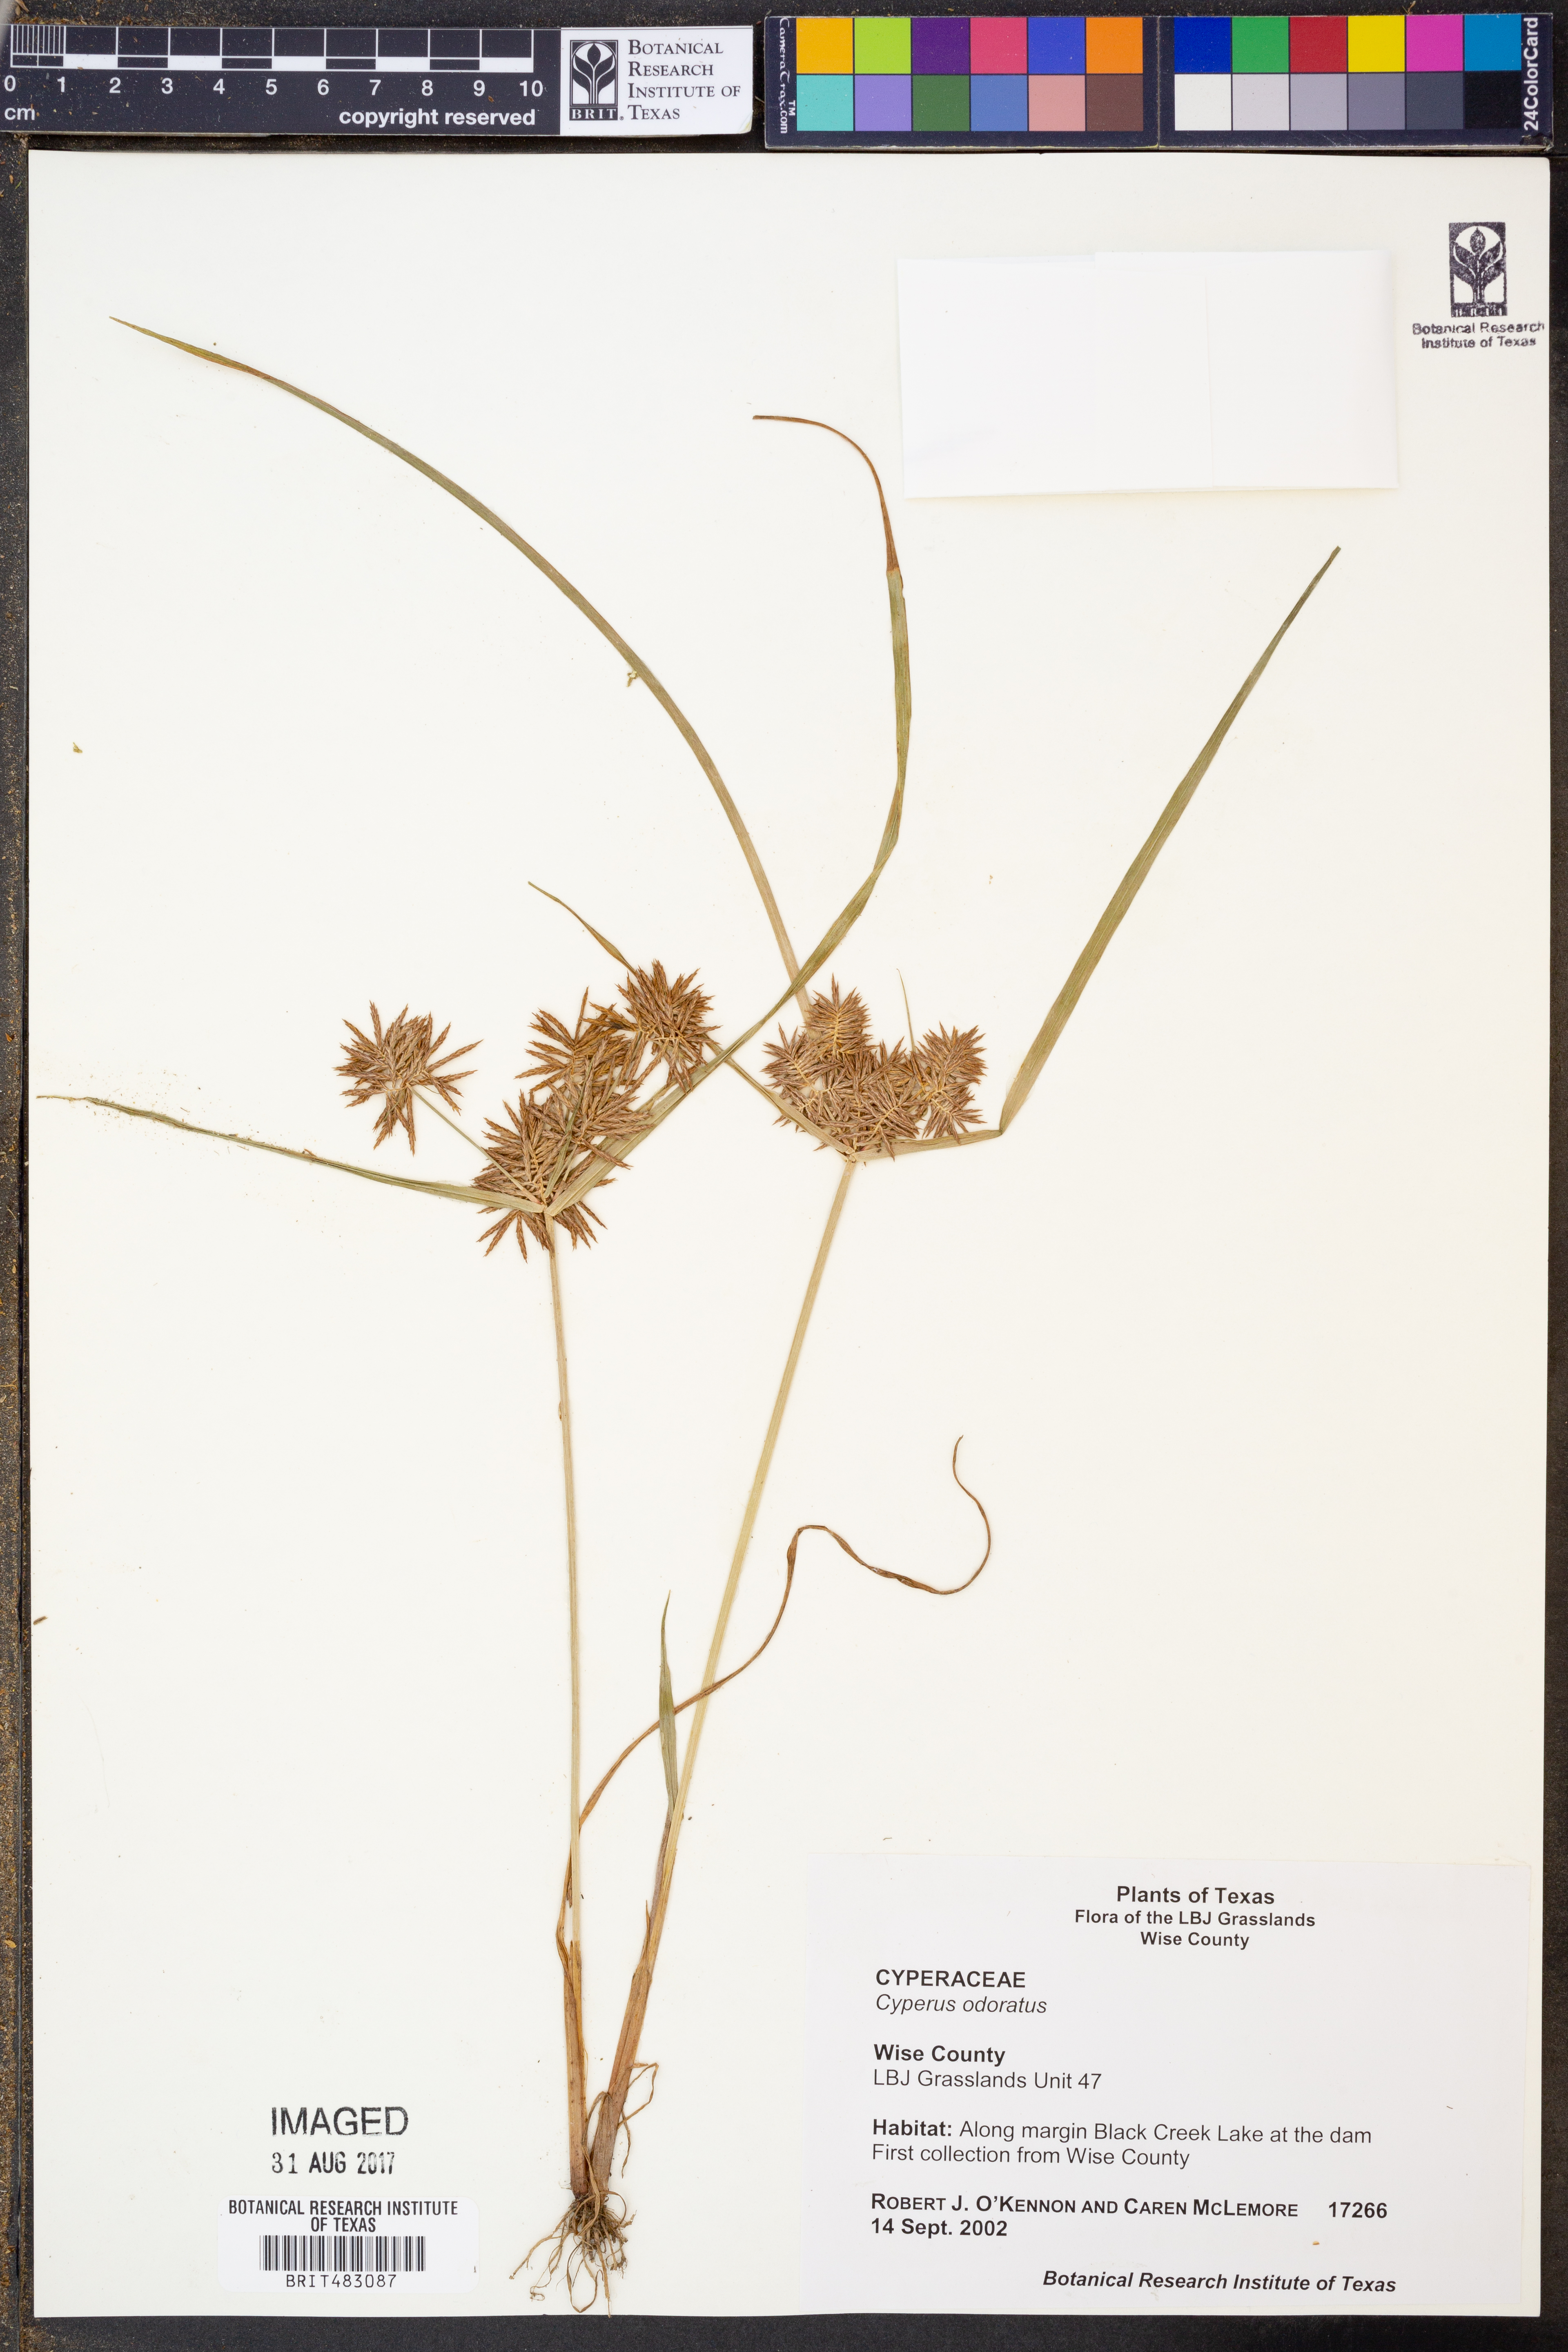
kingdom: Plantae
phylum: Tracheophyta
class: Liliopsida
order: Poales
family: Cyperaceae
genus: Cyperus
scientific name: Cyperus odoratus
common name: Fragrant flatsedge
